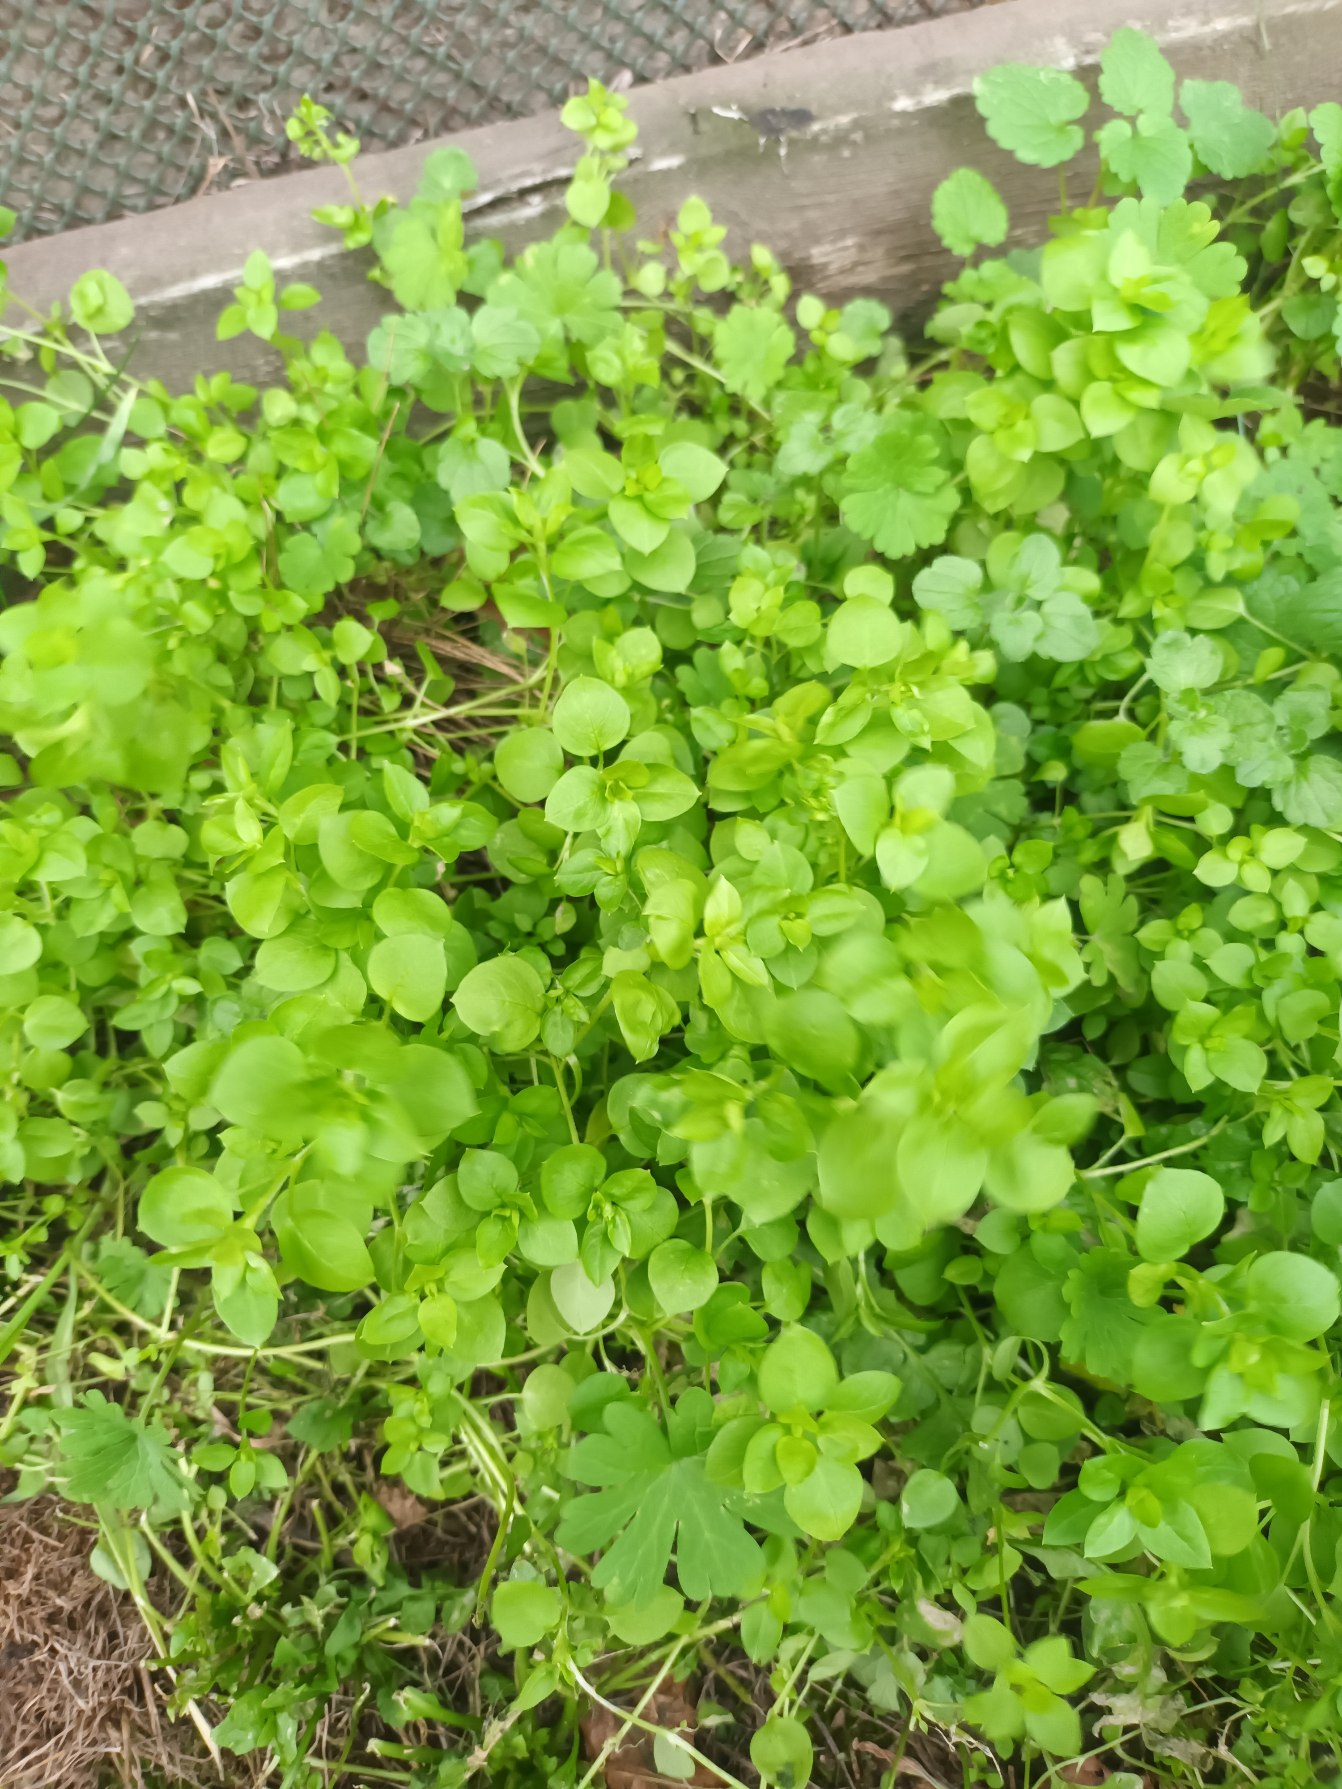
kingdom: Plantae
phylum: Tracheophyta
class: Magnoliopsida
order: Caryophyllales
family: Caryophyllaceae
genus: Stellaria
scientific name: Stellaria media
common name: Almindelig fuglegræs
